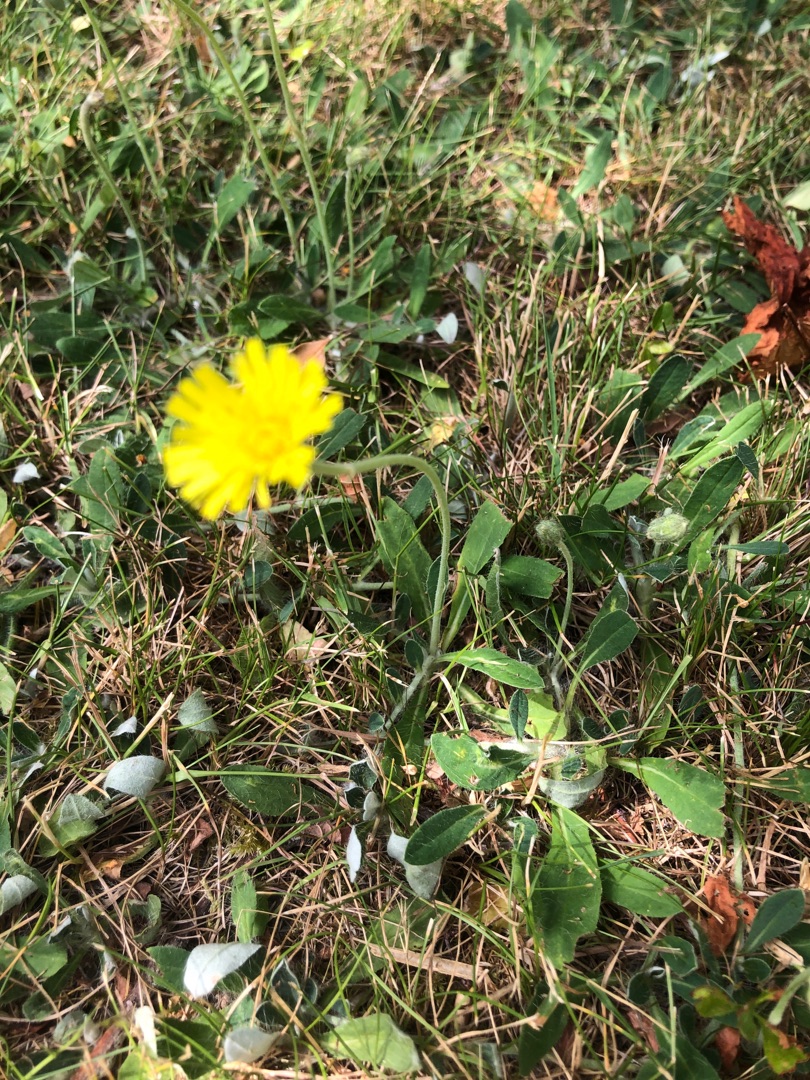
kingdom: Plantae
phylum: Tracheophyta
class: Magnoliopsida
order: Asterales
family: Asteraceae
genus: Pilosella
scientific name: Pilosella officinarum
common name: Håret høgeurt
